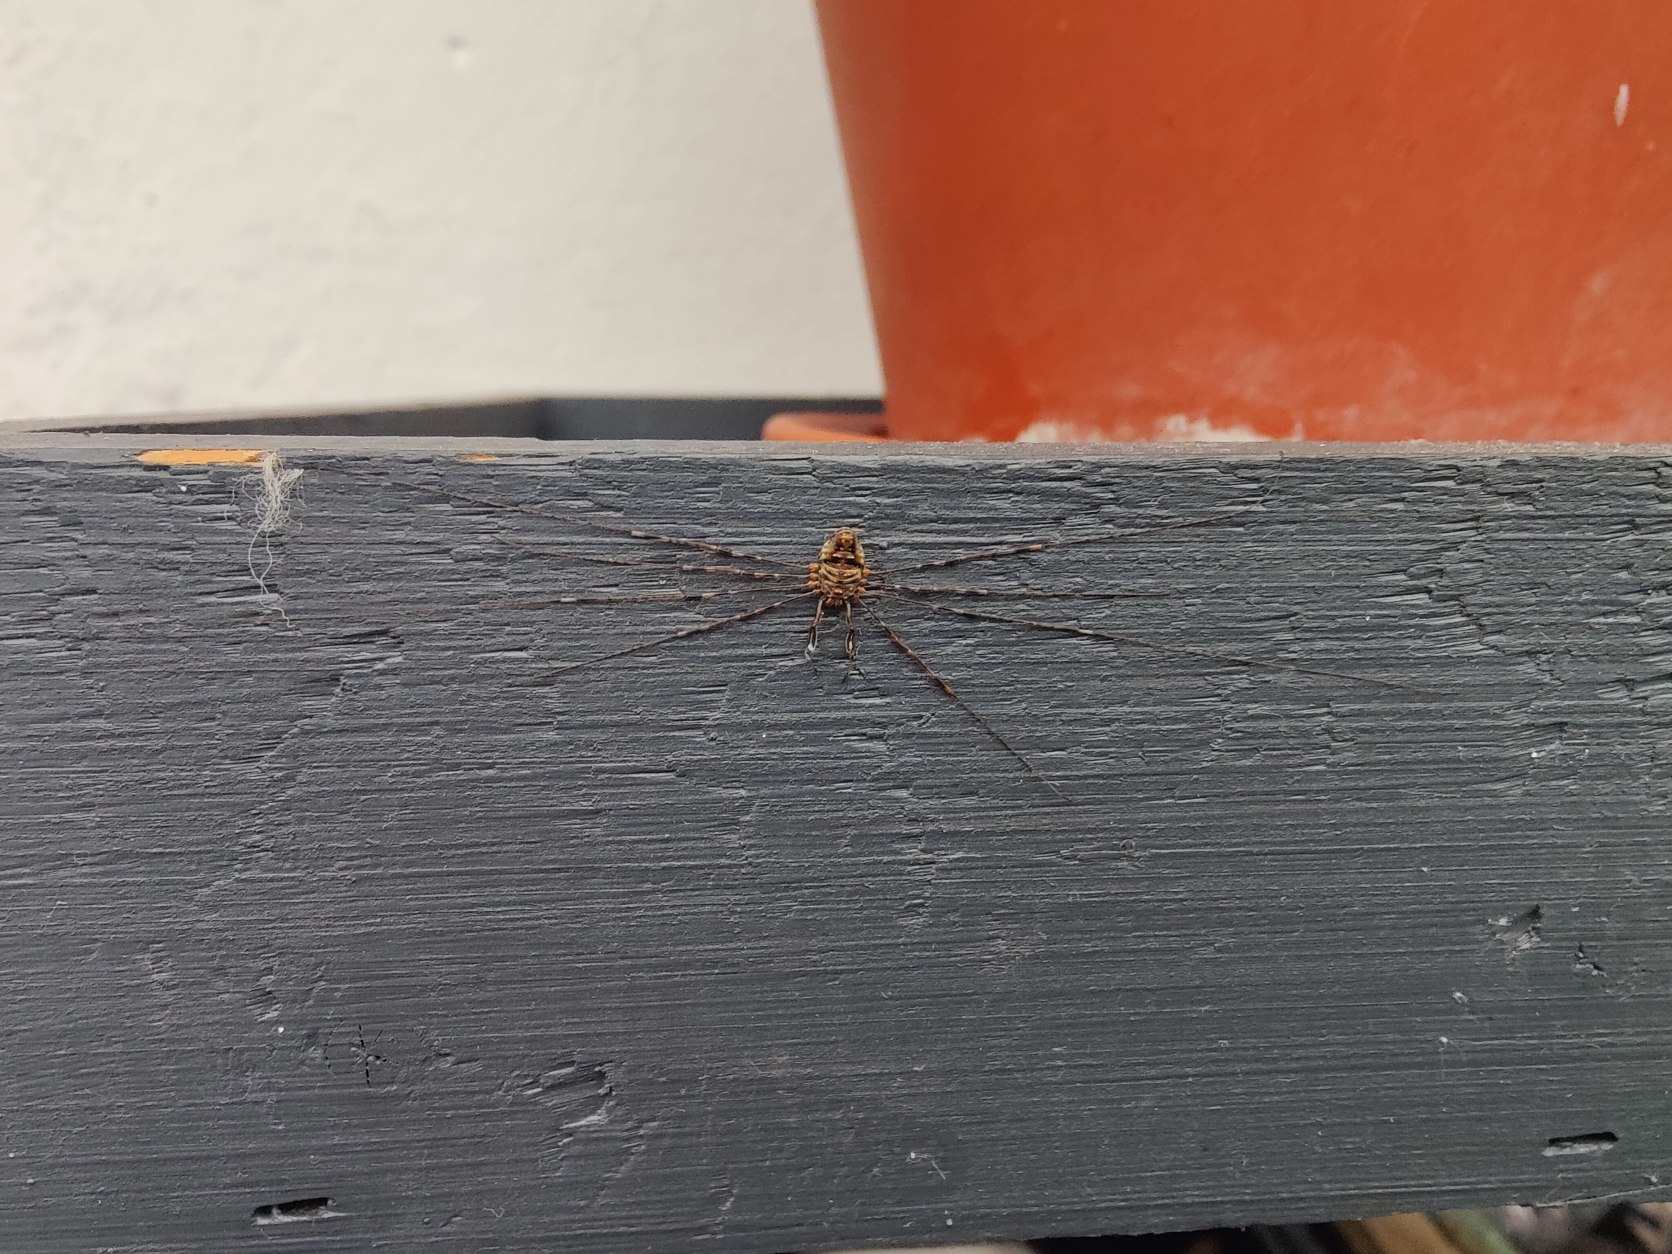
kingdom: Animalia
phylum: Arthropoda
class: Arachnida
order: Opiliones
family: Phalangiidae
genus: Dicranopalpus
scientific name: Dicranopalpus
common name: Gaffelmejere
